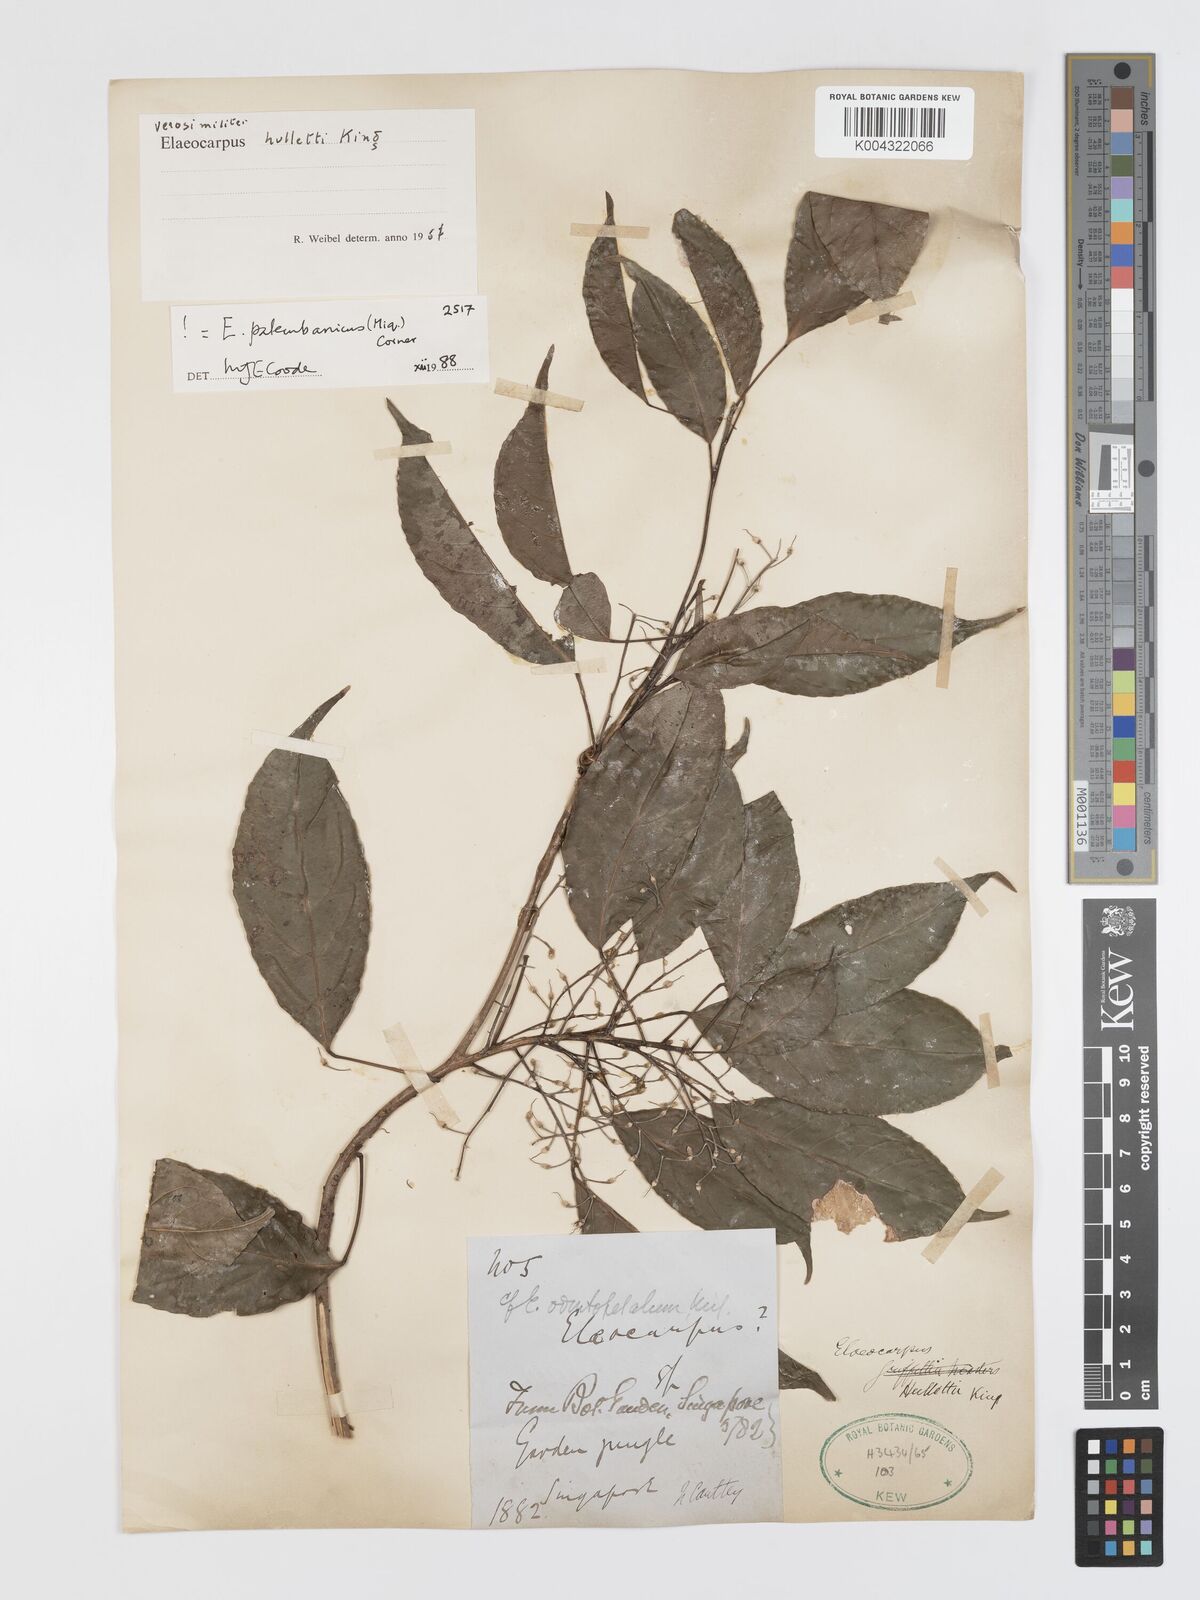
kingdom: Plantae
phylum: Tracheophyta
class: Magnoliopsida
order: Oxalidales
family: Elaeocarpaceae
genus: Elaeocarpus
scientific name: Elaeocarpus palembanicus
